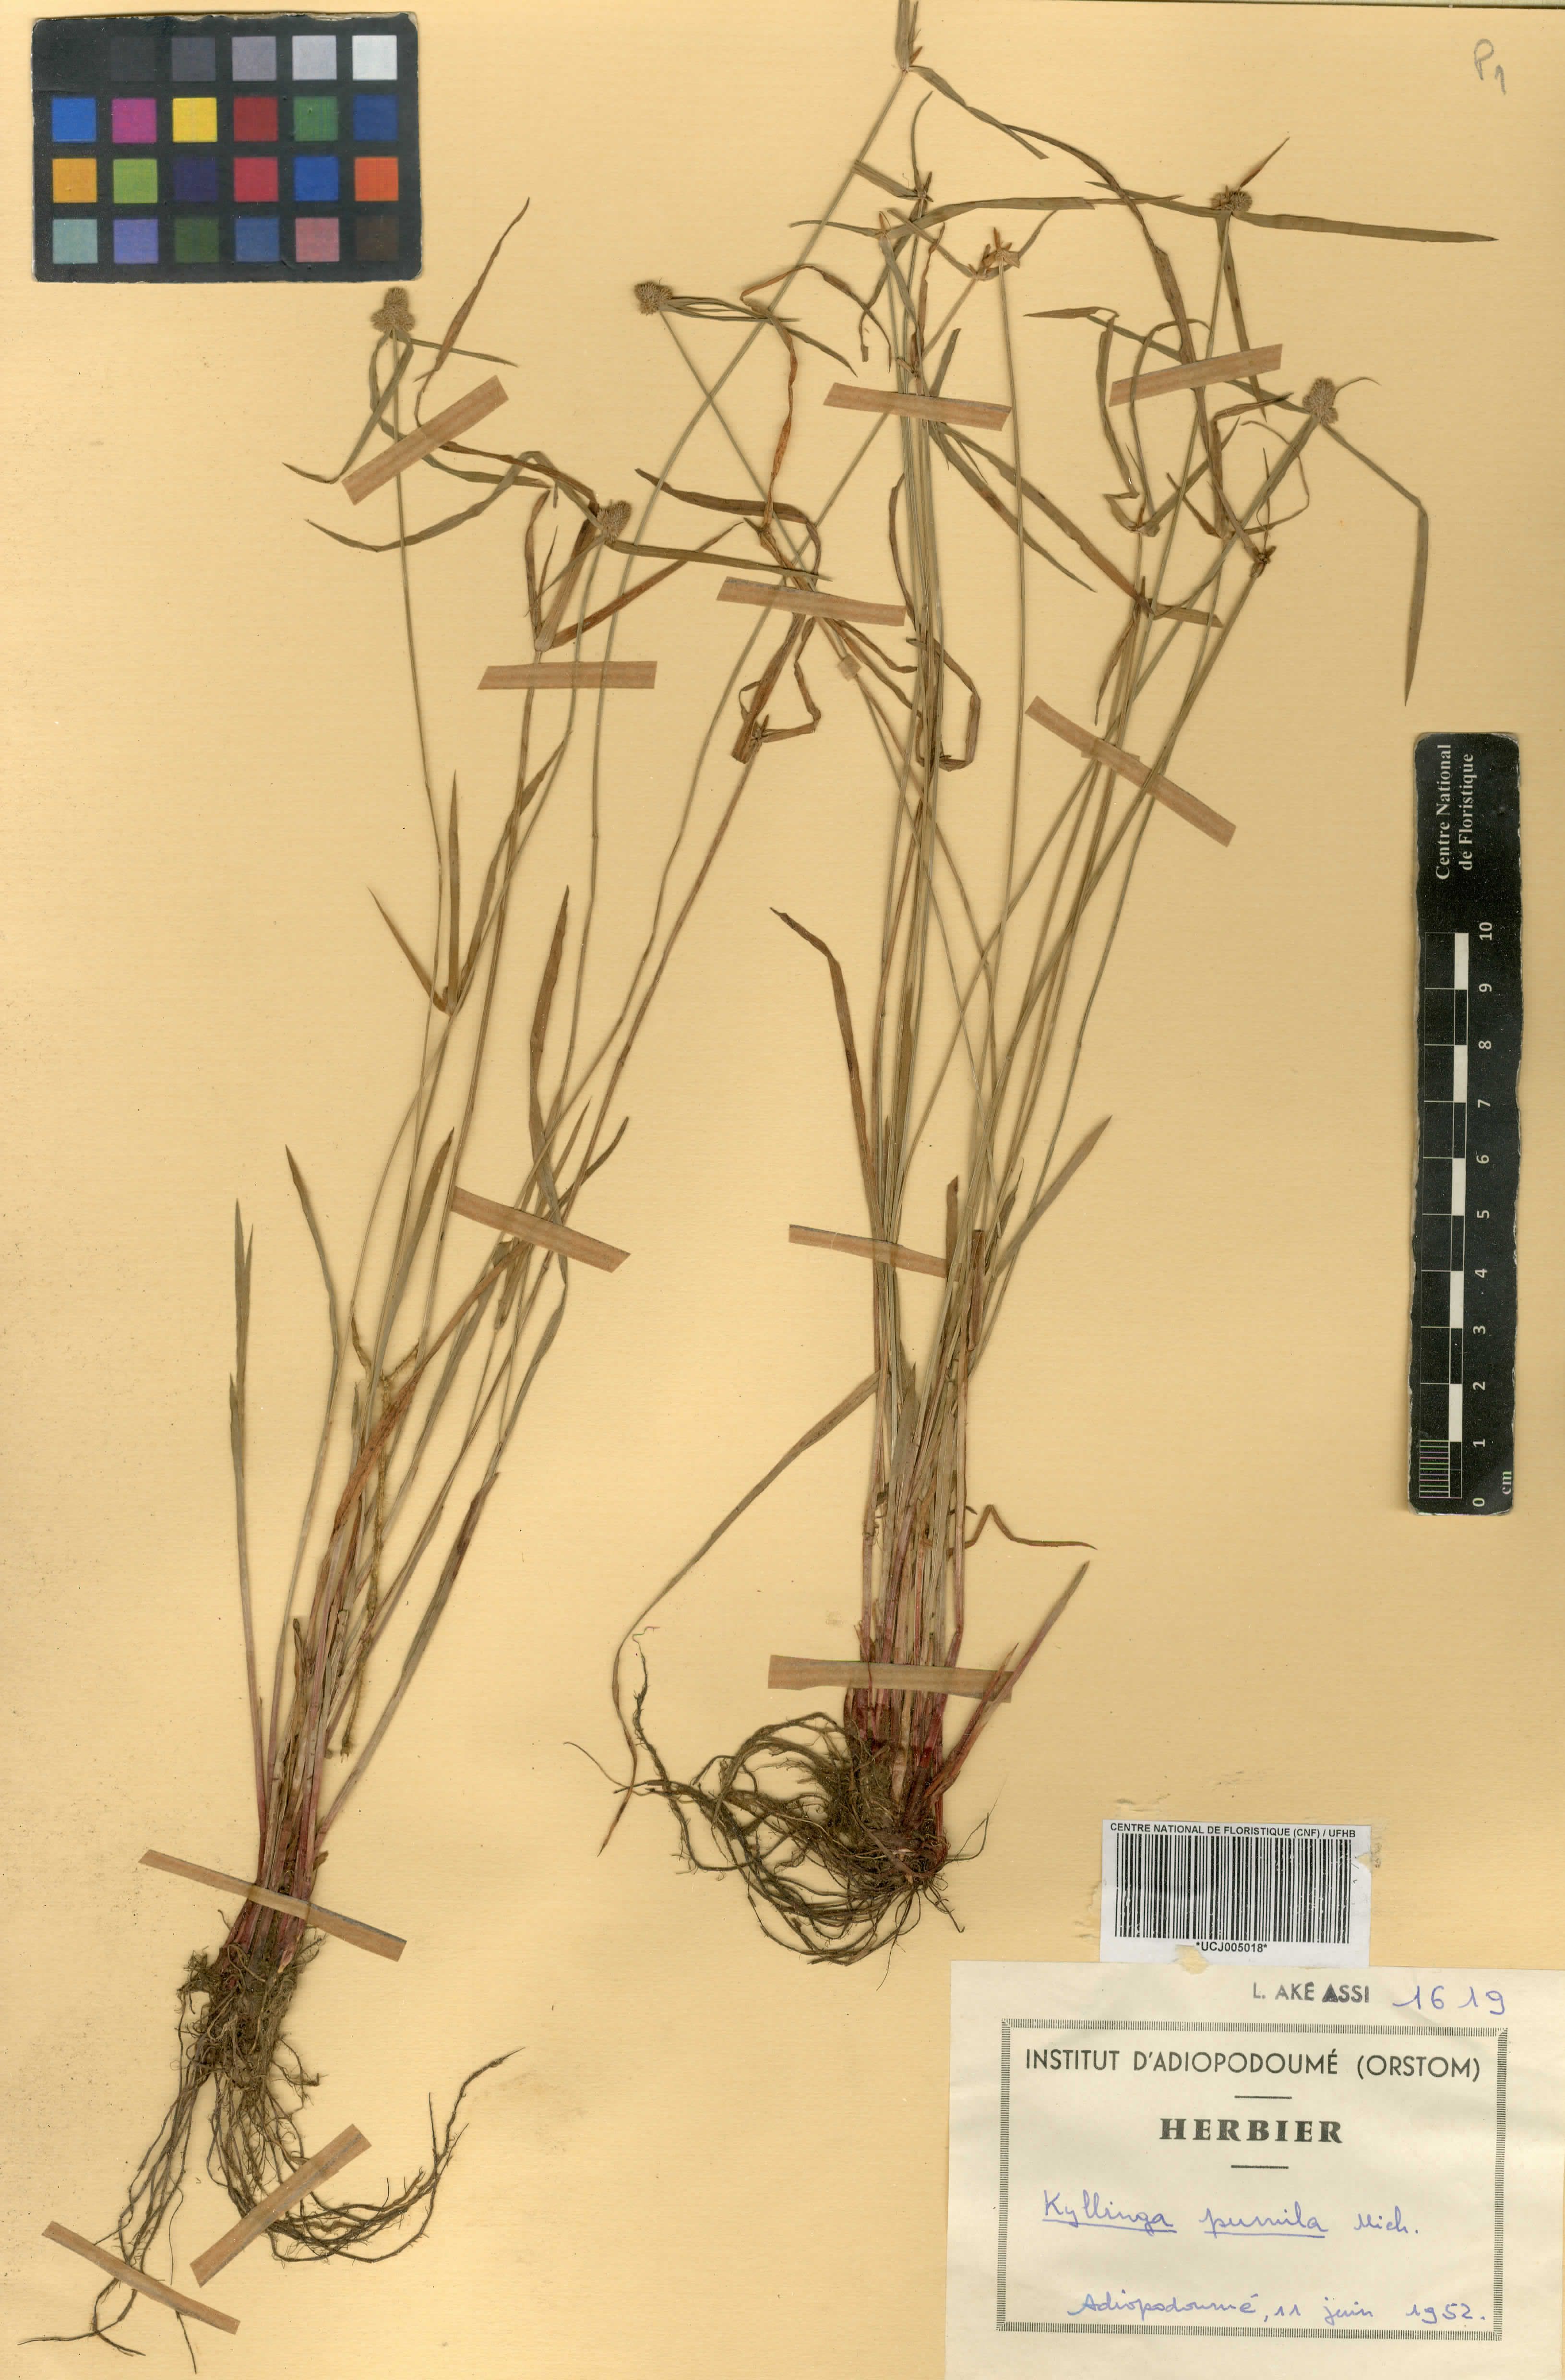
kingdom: Plantae
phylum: Tracheophyta
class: Liliopsida
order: Poales
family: Cyperaceae
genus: Cyperus
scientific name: Cyperus hortensis
